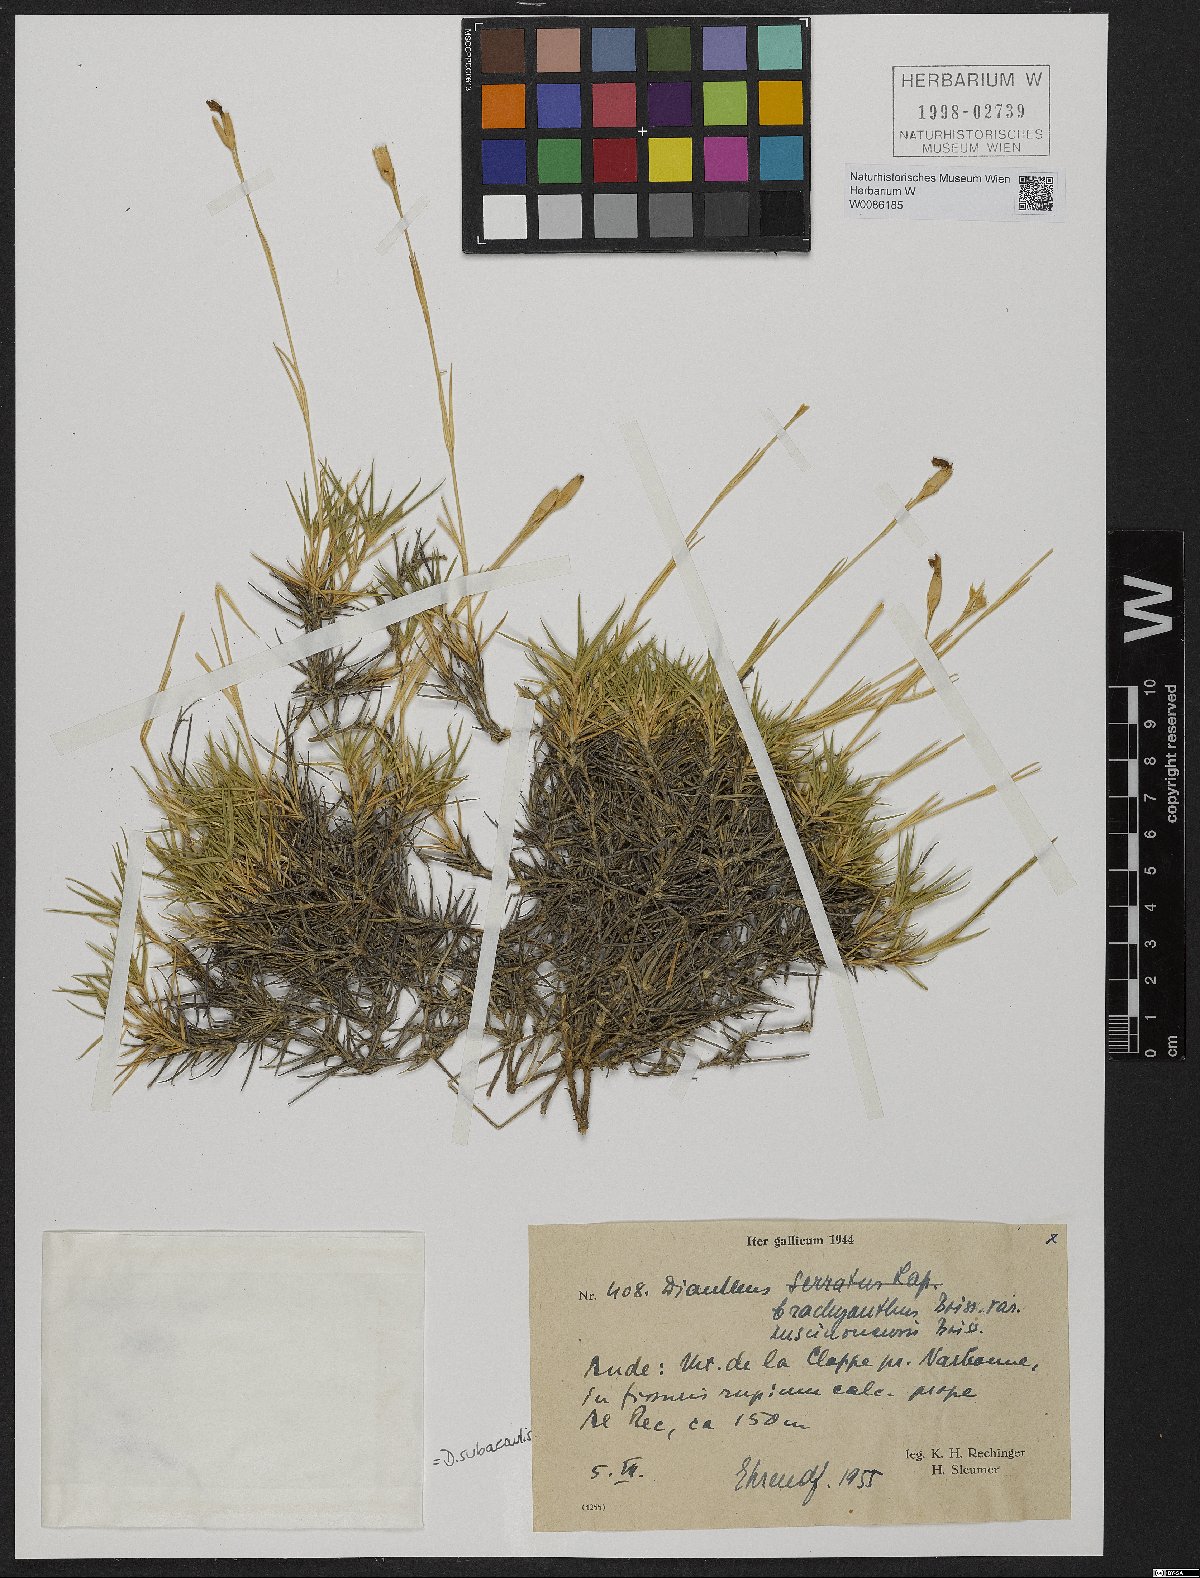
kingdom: Plantae
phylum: Tracheophyta
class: Magnoliopsida
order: Caryophyllales
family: Caryophyllaceae
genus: Dianthus
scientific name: Dianthus pungens
